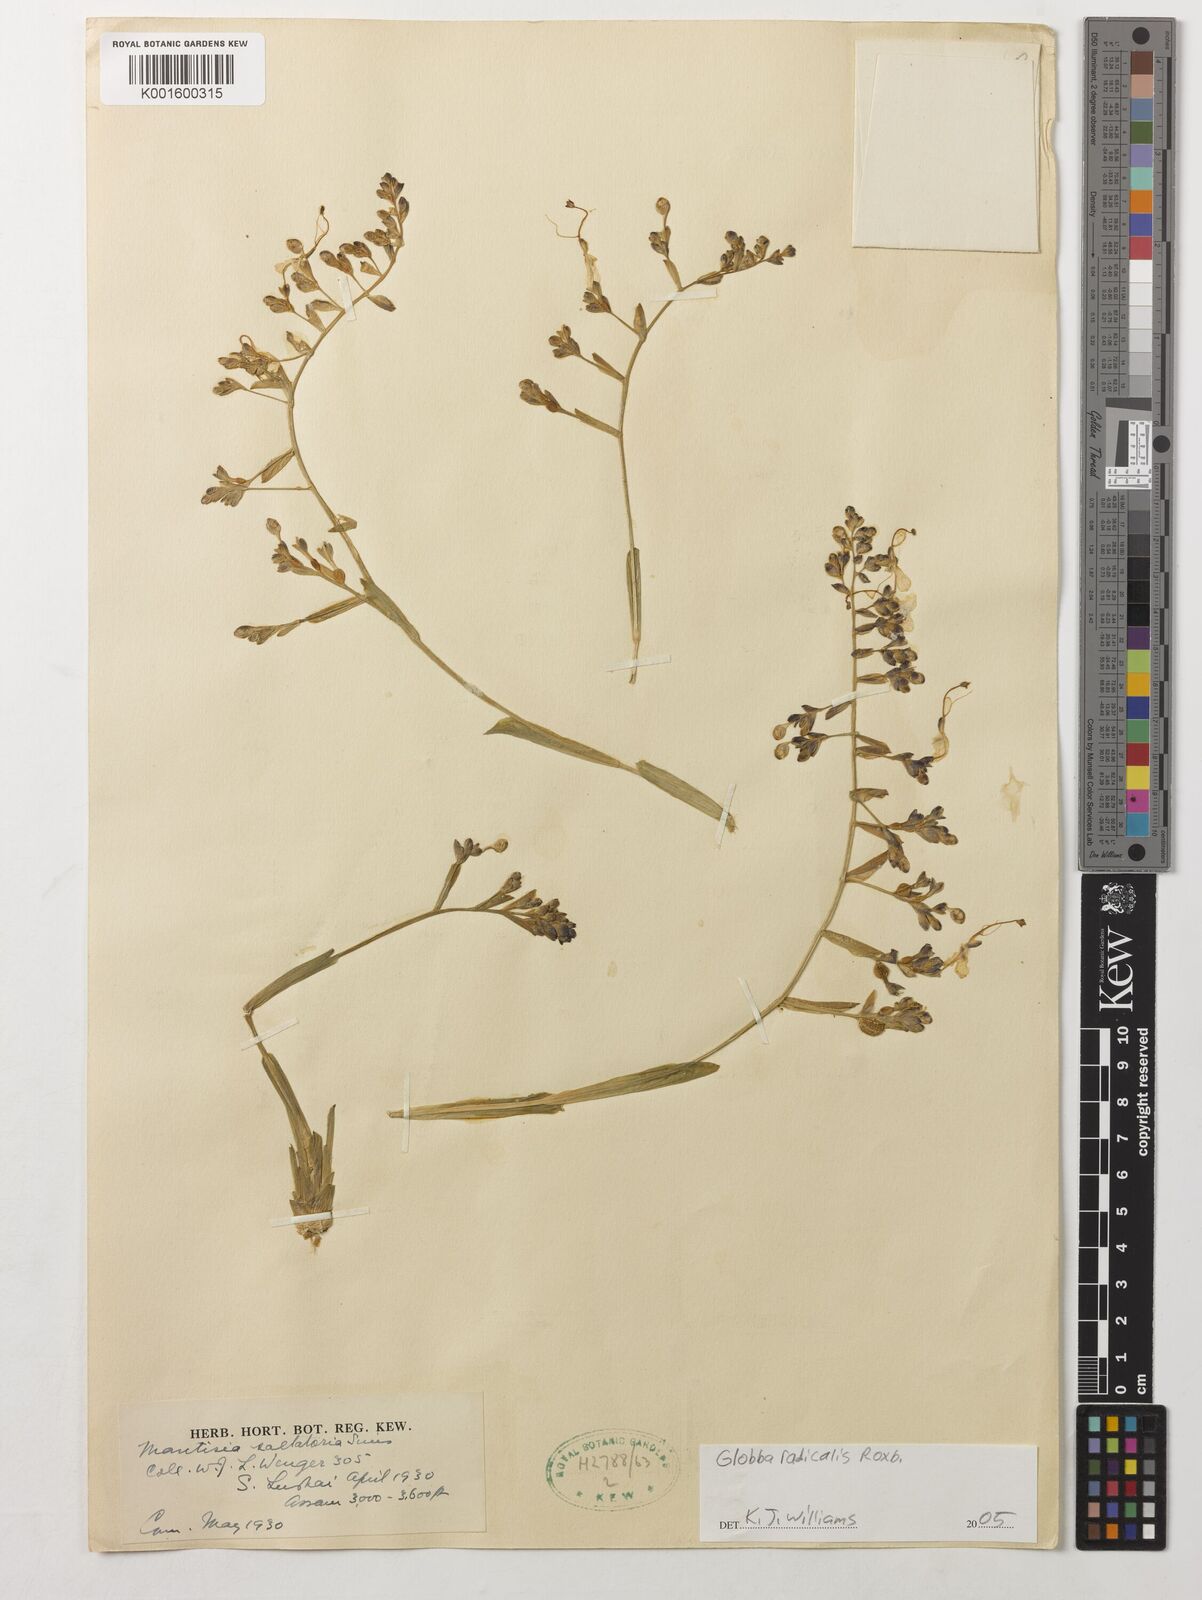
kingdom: Plantae
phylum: Tracheophyta
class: Liliopsida
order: Zingiberales
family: Zingiberaceae
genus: Globba
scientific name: Globba radicalis
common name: Dancing girl
